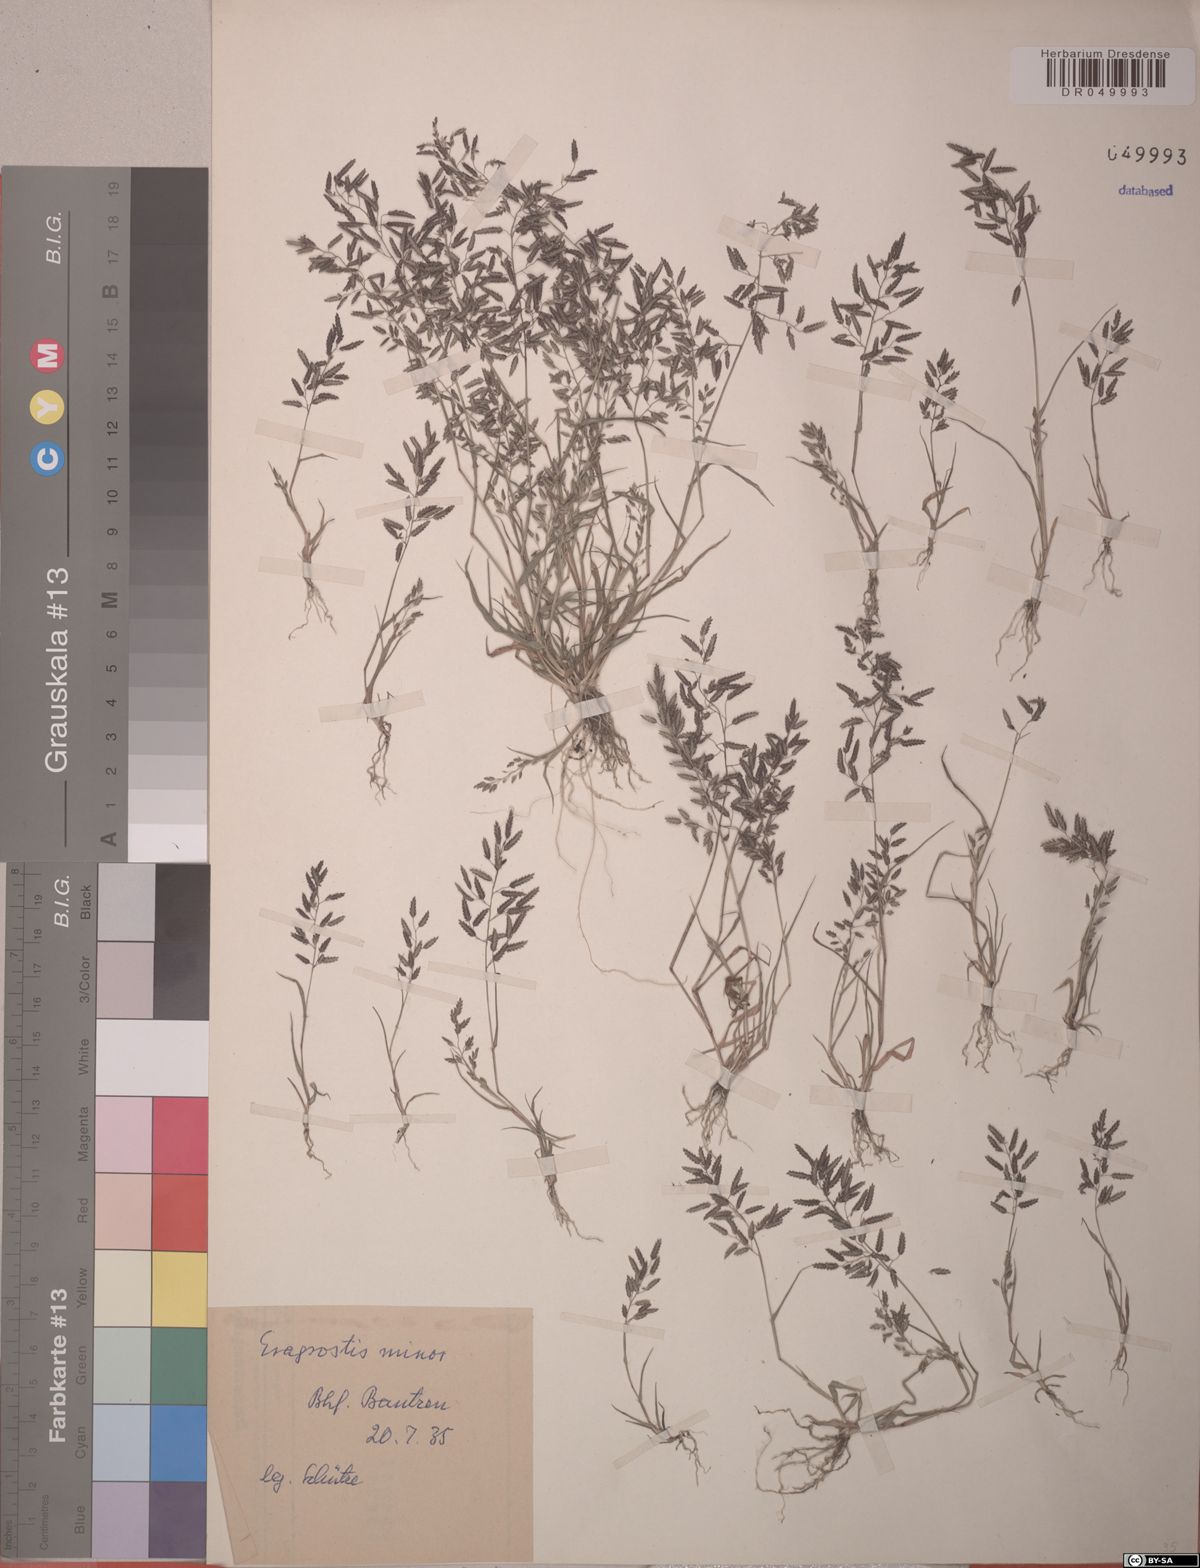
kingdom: Plantae
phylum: Tracheophyta
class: Liliopsida
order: Poales
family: Poaceae
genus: Eragrostis
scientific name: Eragrostis minor
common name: Small love-grass
